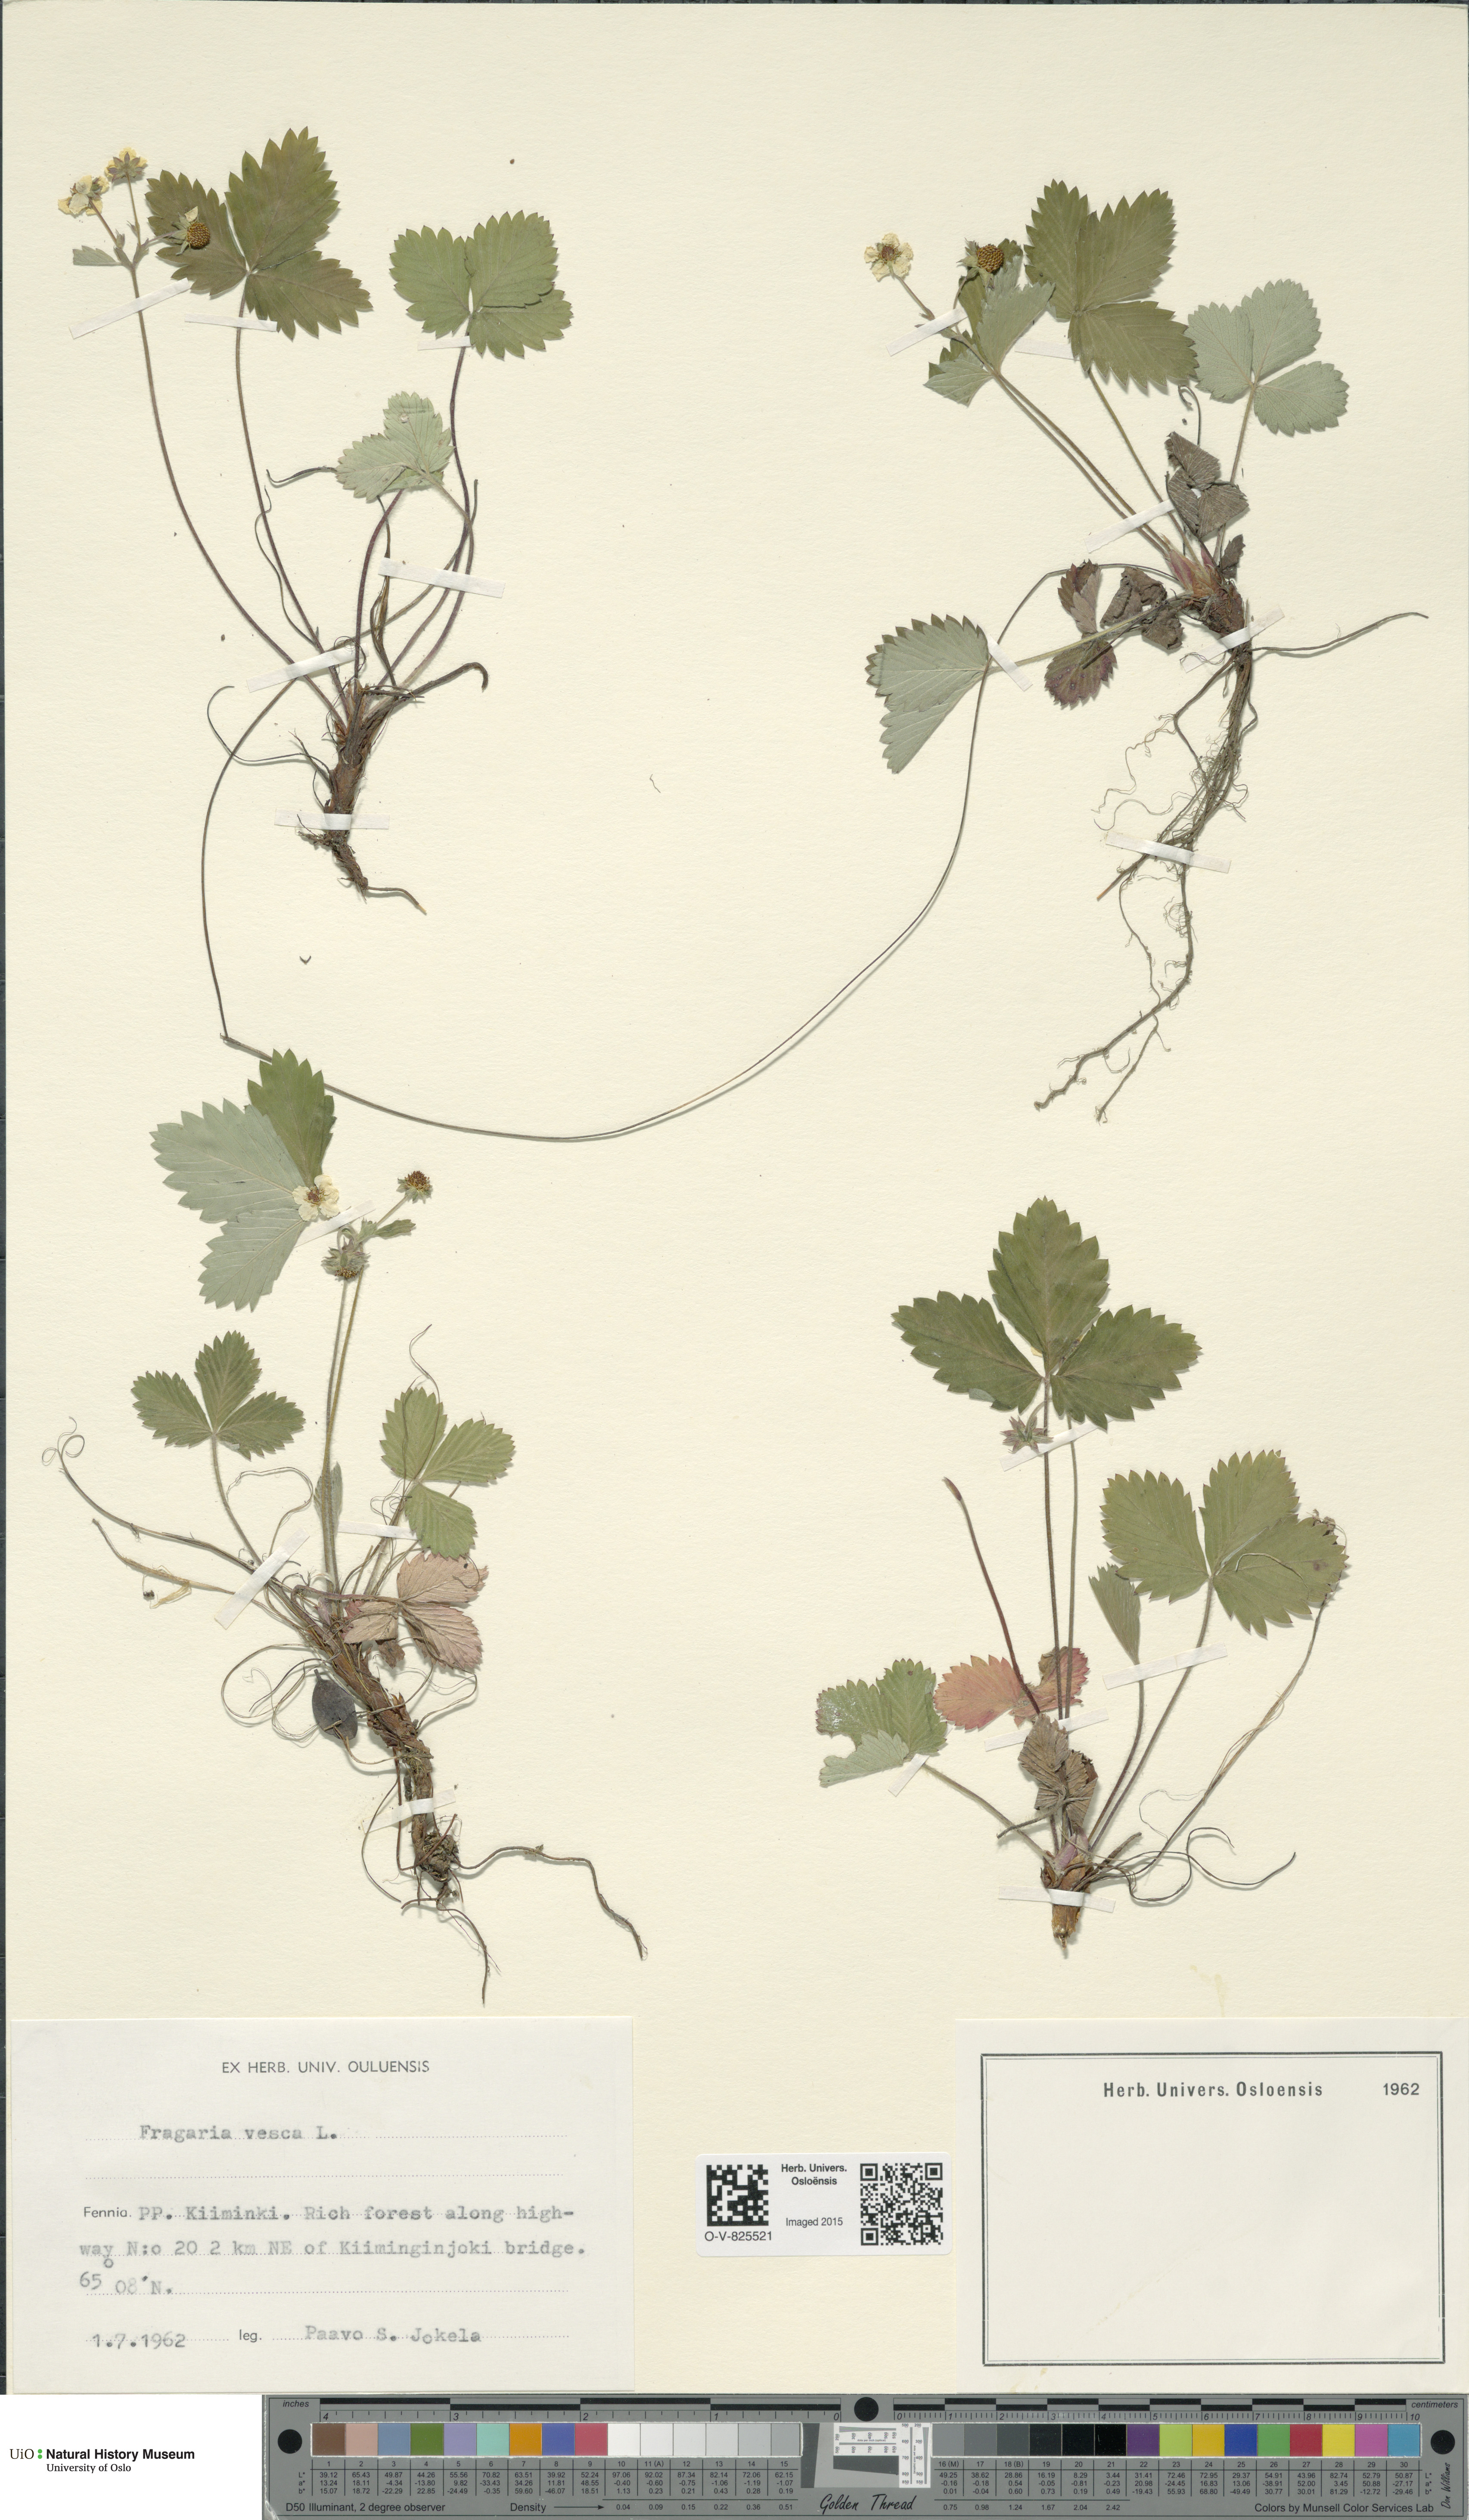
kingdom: Plantae
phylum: Tracheophyta
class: Magnoliopsida
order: Rosales
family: Rosaceae
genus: Fragaria
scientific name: Fragaria vesca
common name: Wild strawberry
